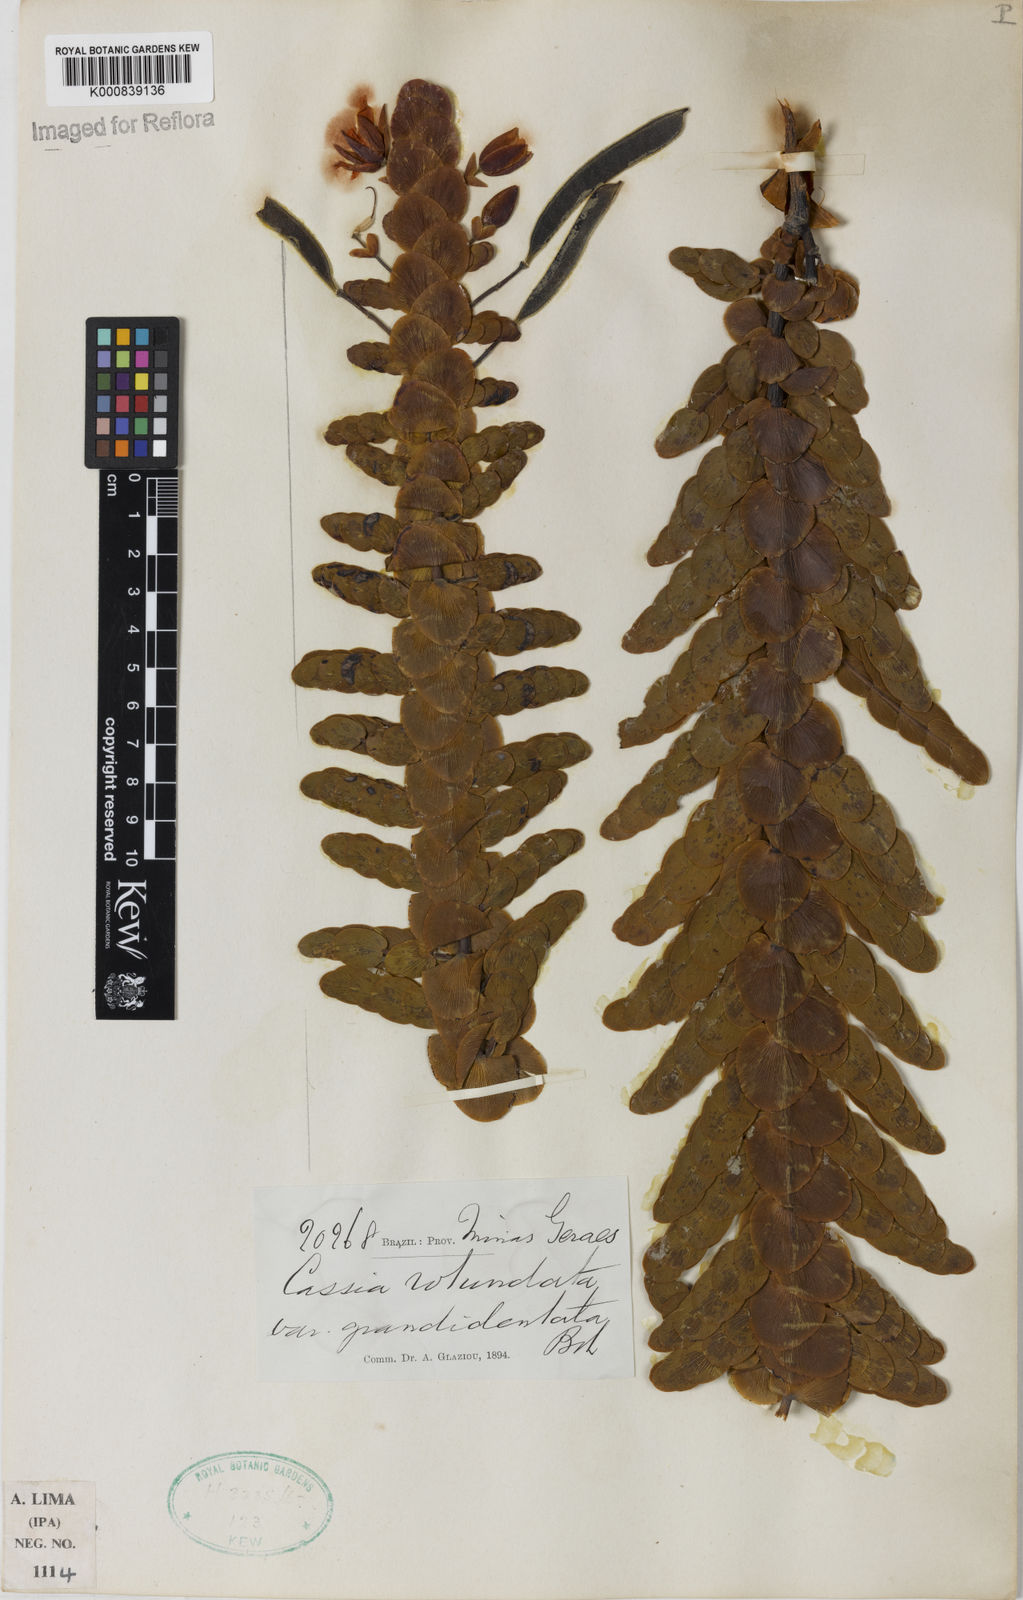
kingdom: Plantae
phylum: Tracheophyta
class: Magnoliopsida
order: Fabales
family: Fabaceae
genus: Chamaecrista
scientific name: Chamaecrista
